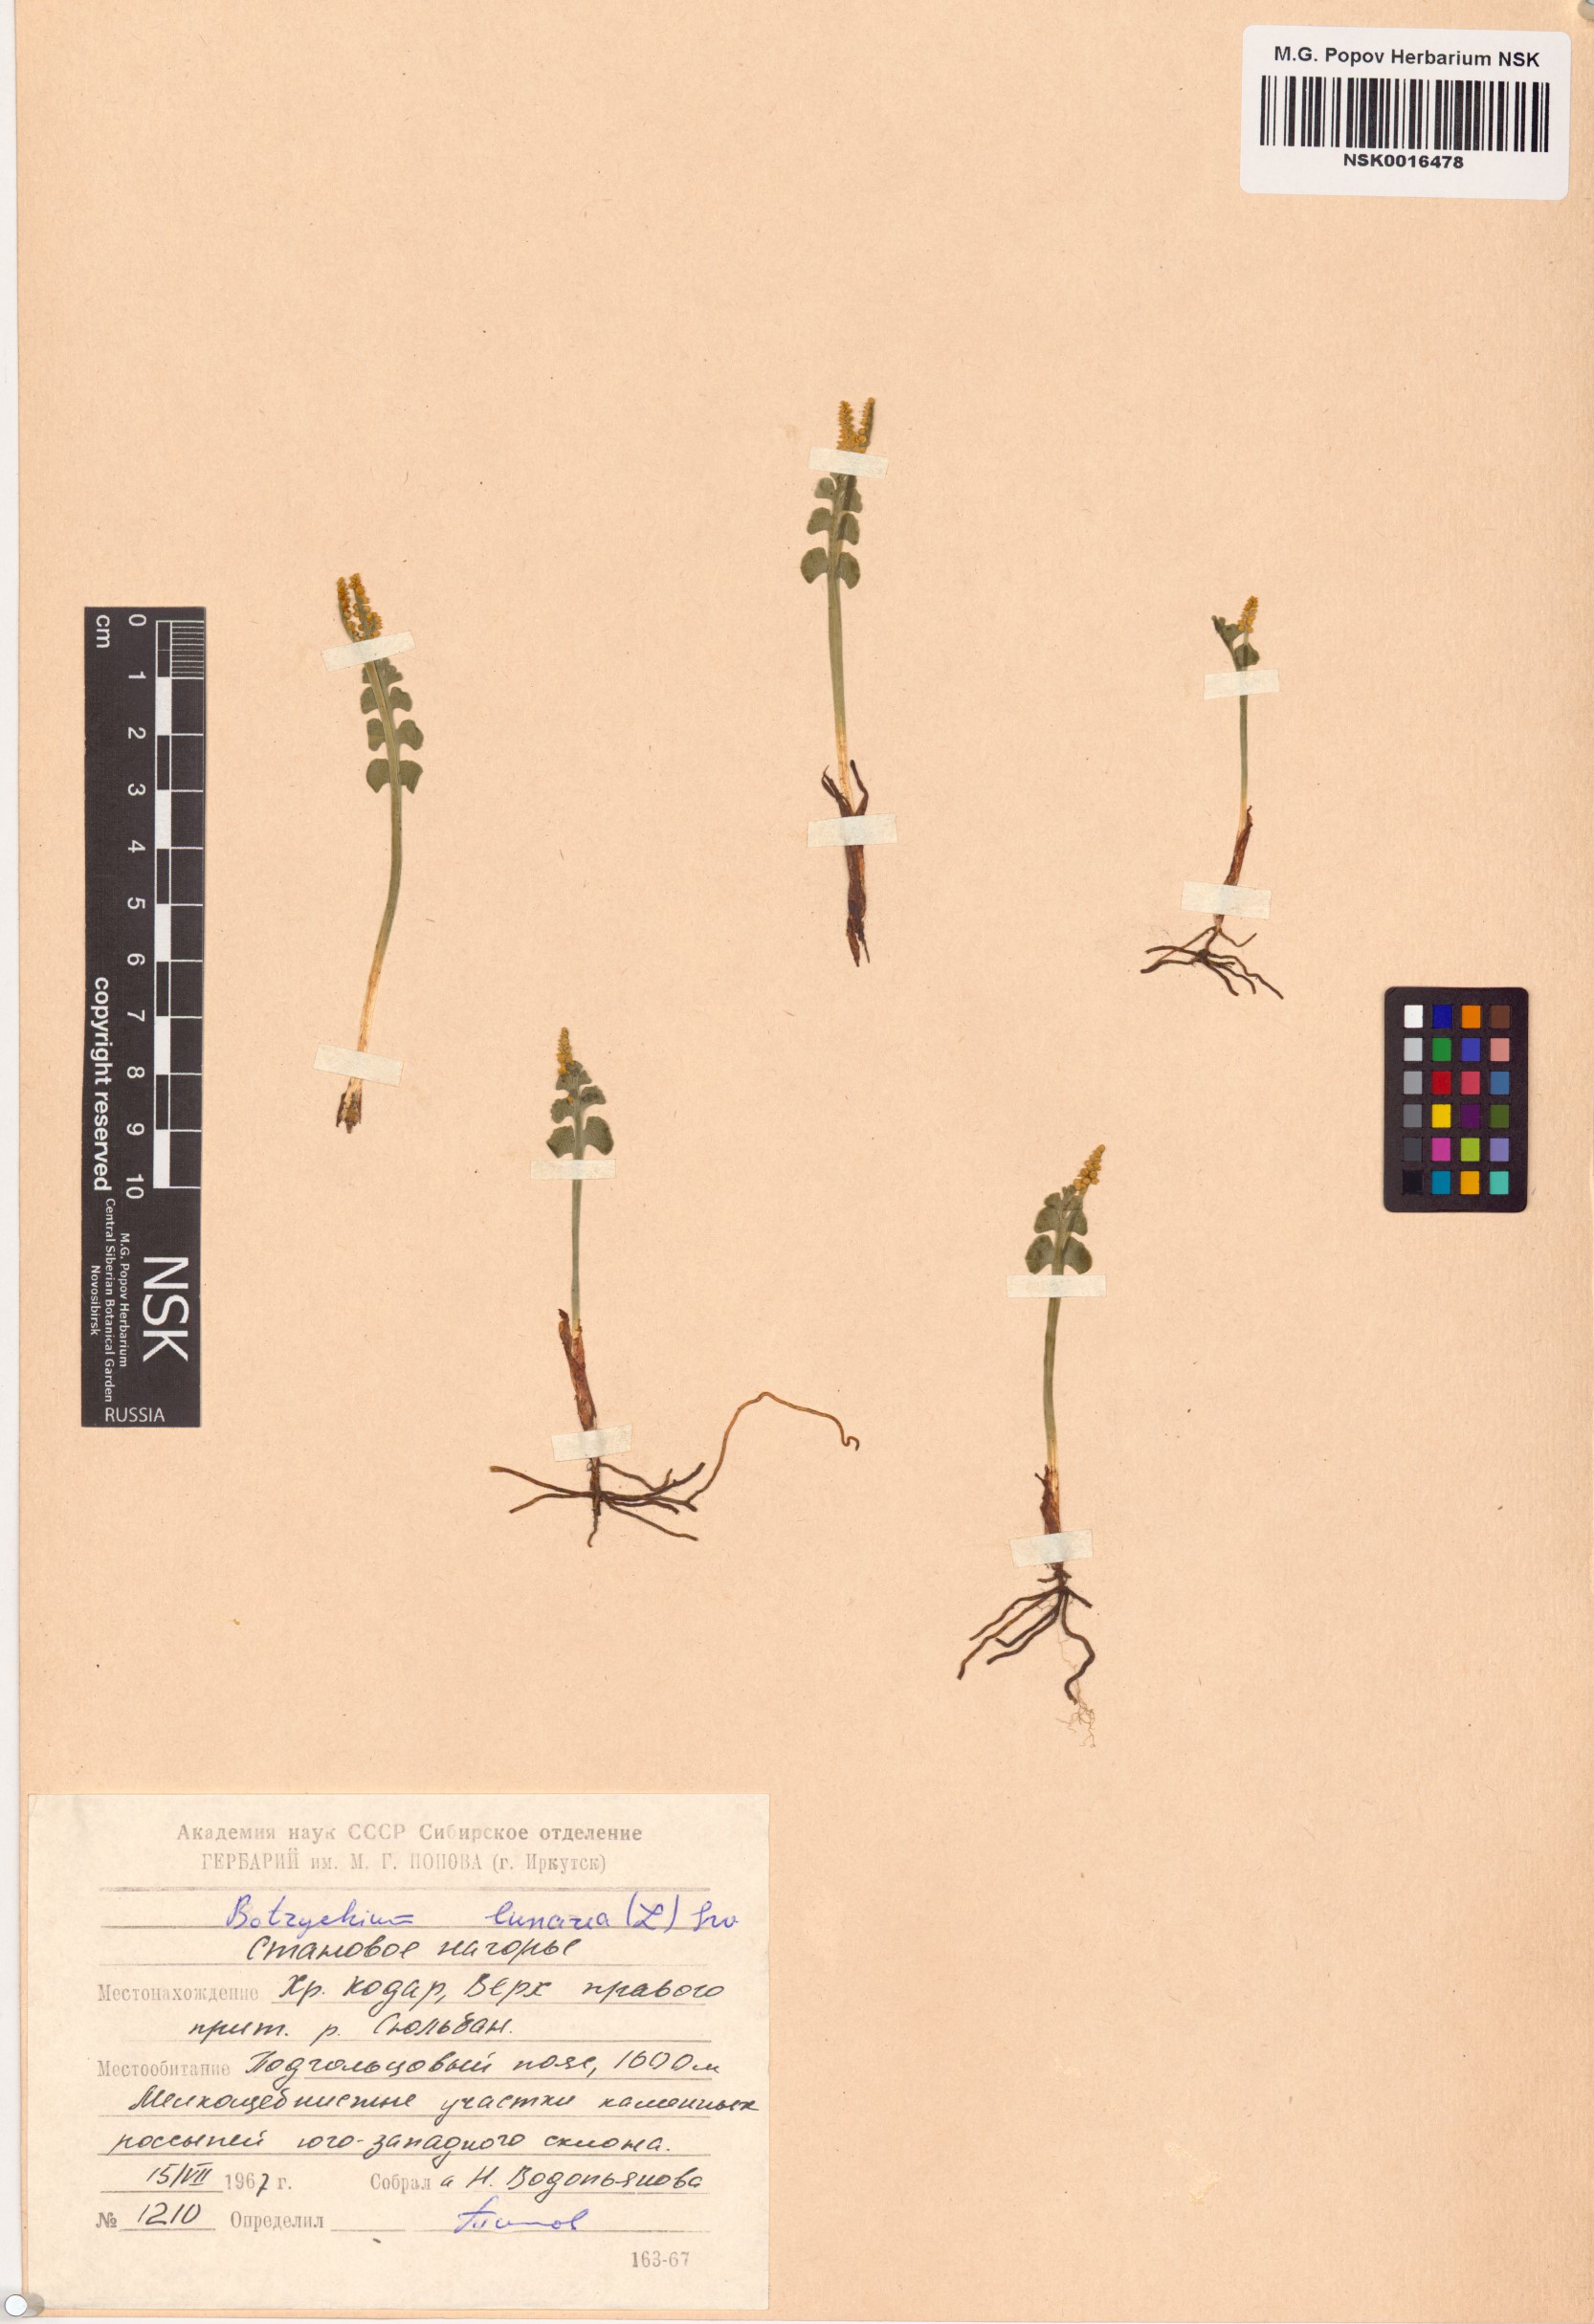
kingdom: Plantae
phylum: Tracheophyta
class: Polypodiopsida
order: Ophioglossales
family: Ophioglossaceae
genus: Botrychium
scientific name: Botrychium lunaria
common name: Moonwort
